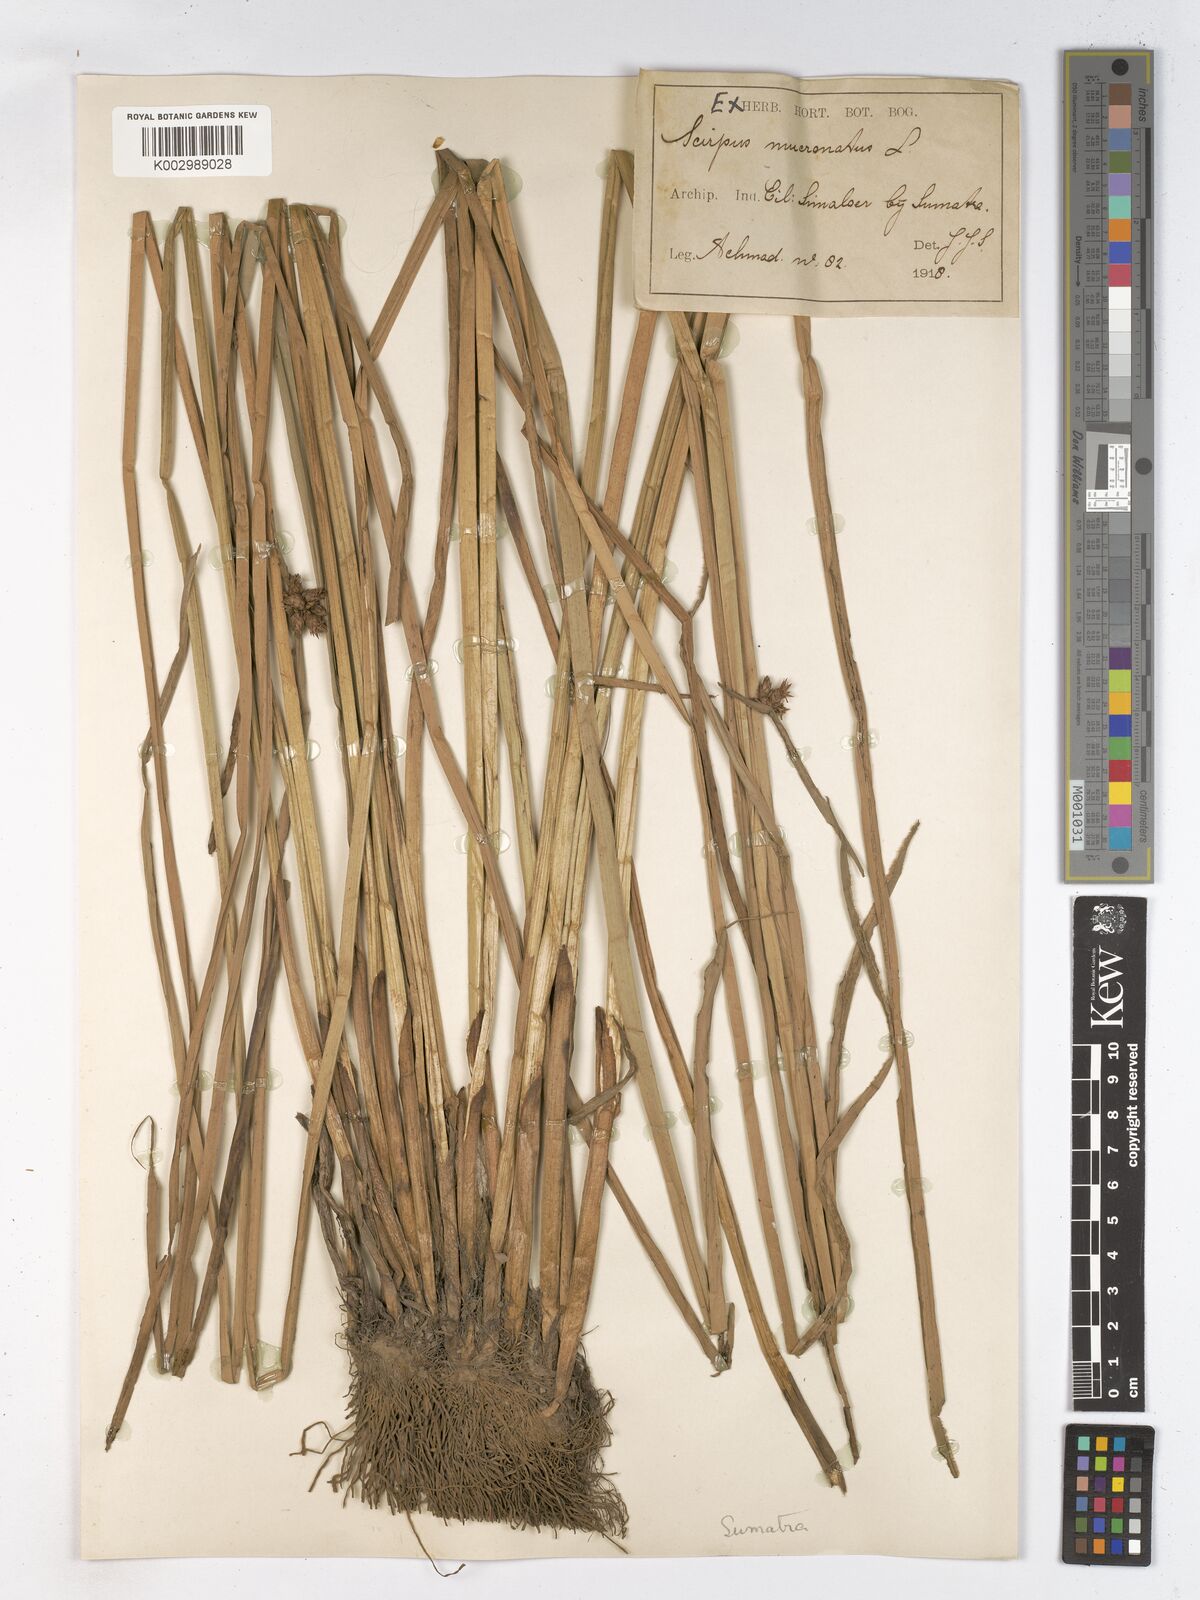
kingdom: Plantae
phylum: Tracheophyta
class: Liliopsida
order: Poales
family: Cyperaceae
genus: Schoenoplectiella
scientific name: Schoenoplectiella mucronata
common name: Bog bulrush
